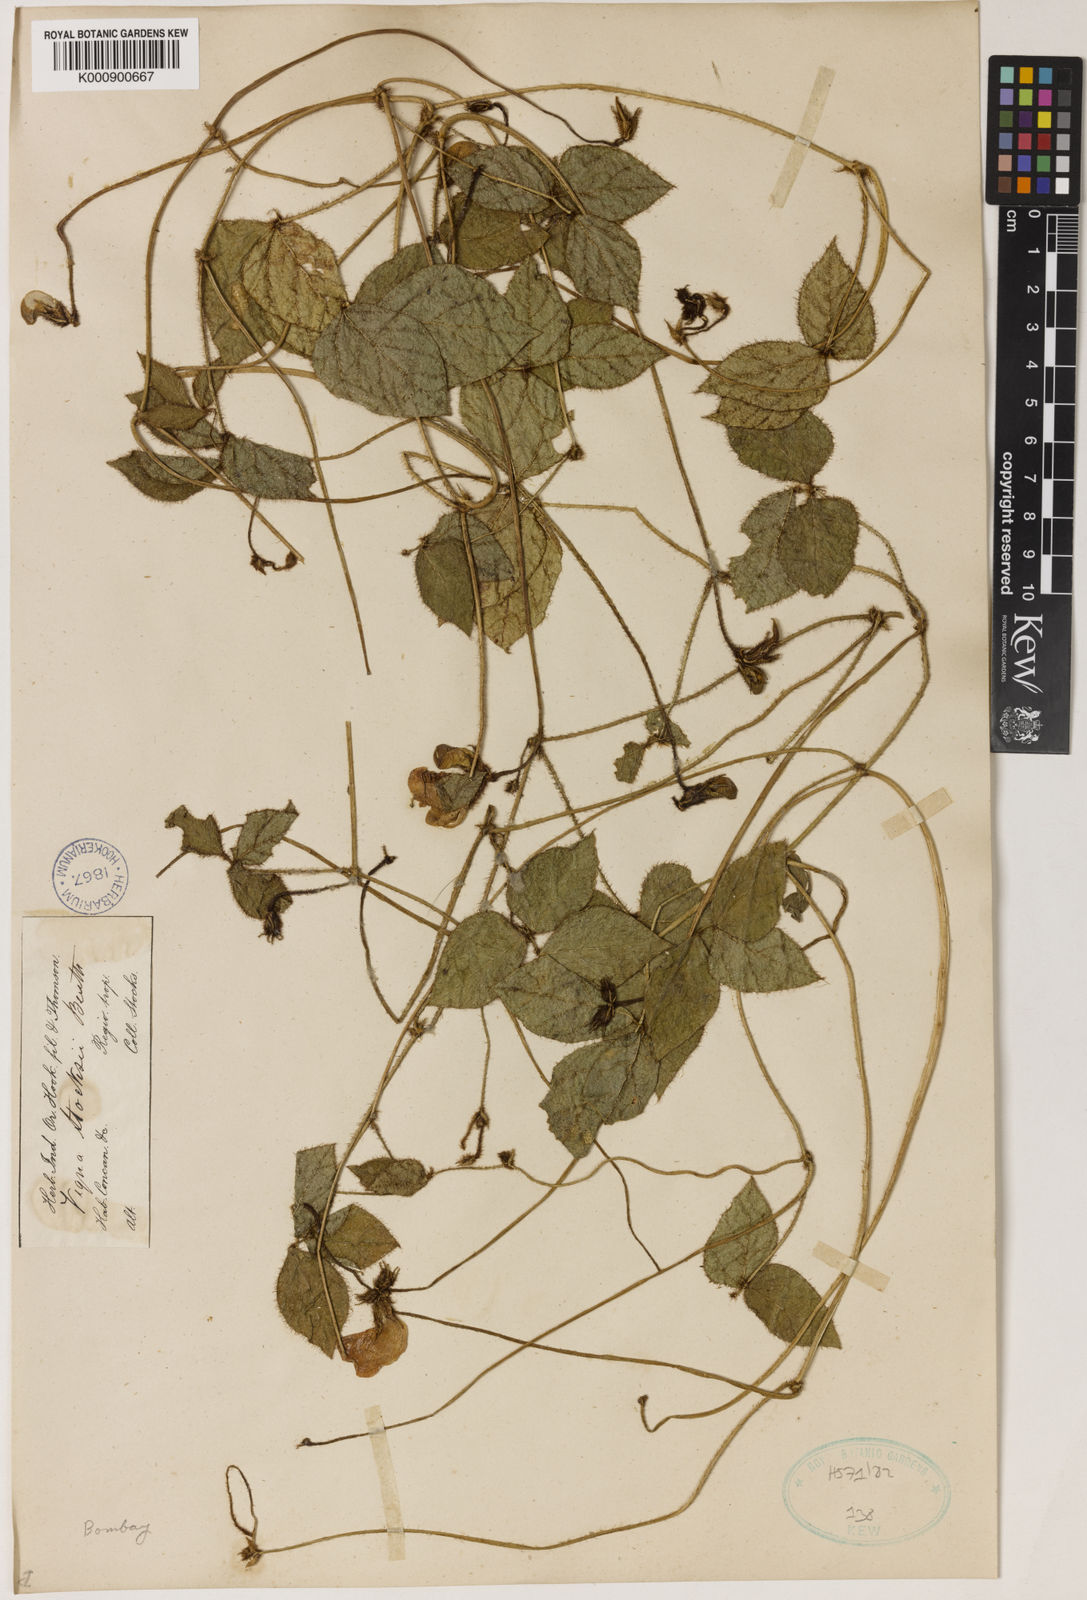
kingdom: Plantae
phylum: Tracheophyta
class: Magnoliopsida
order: Fabales
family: Fabaceae
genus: Vigna
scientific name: Vigna vexillata
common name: Zombi pea
